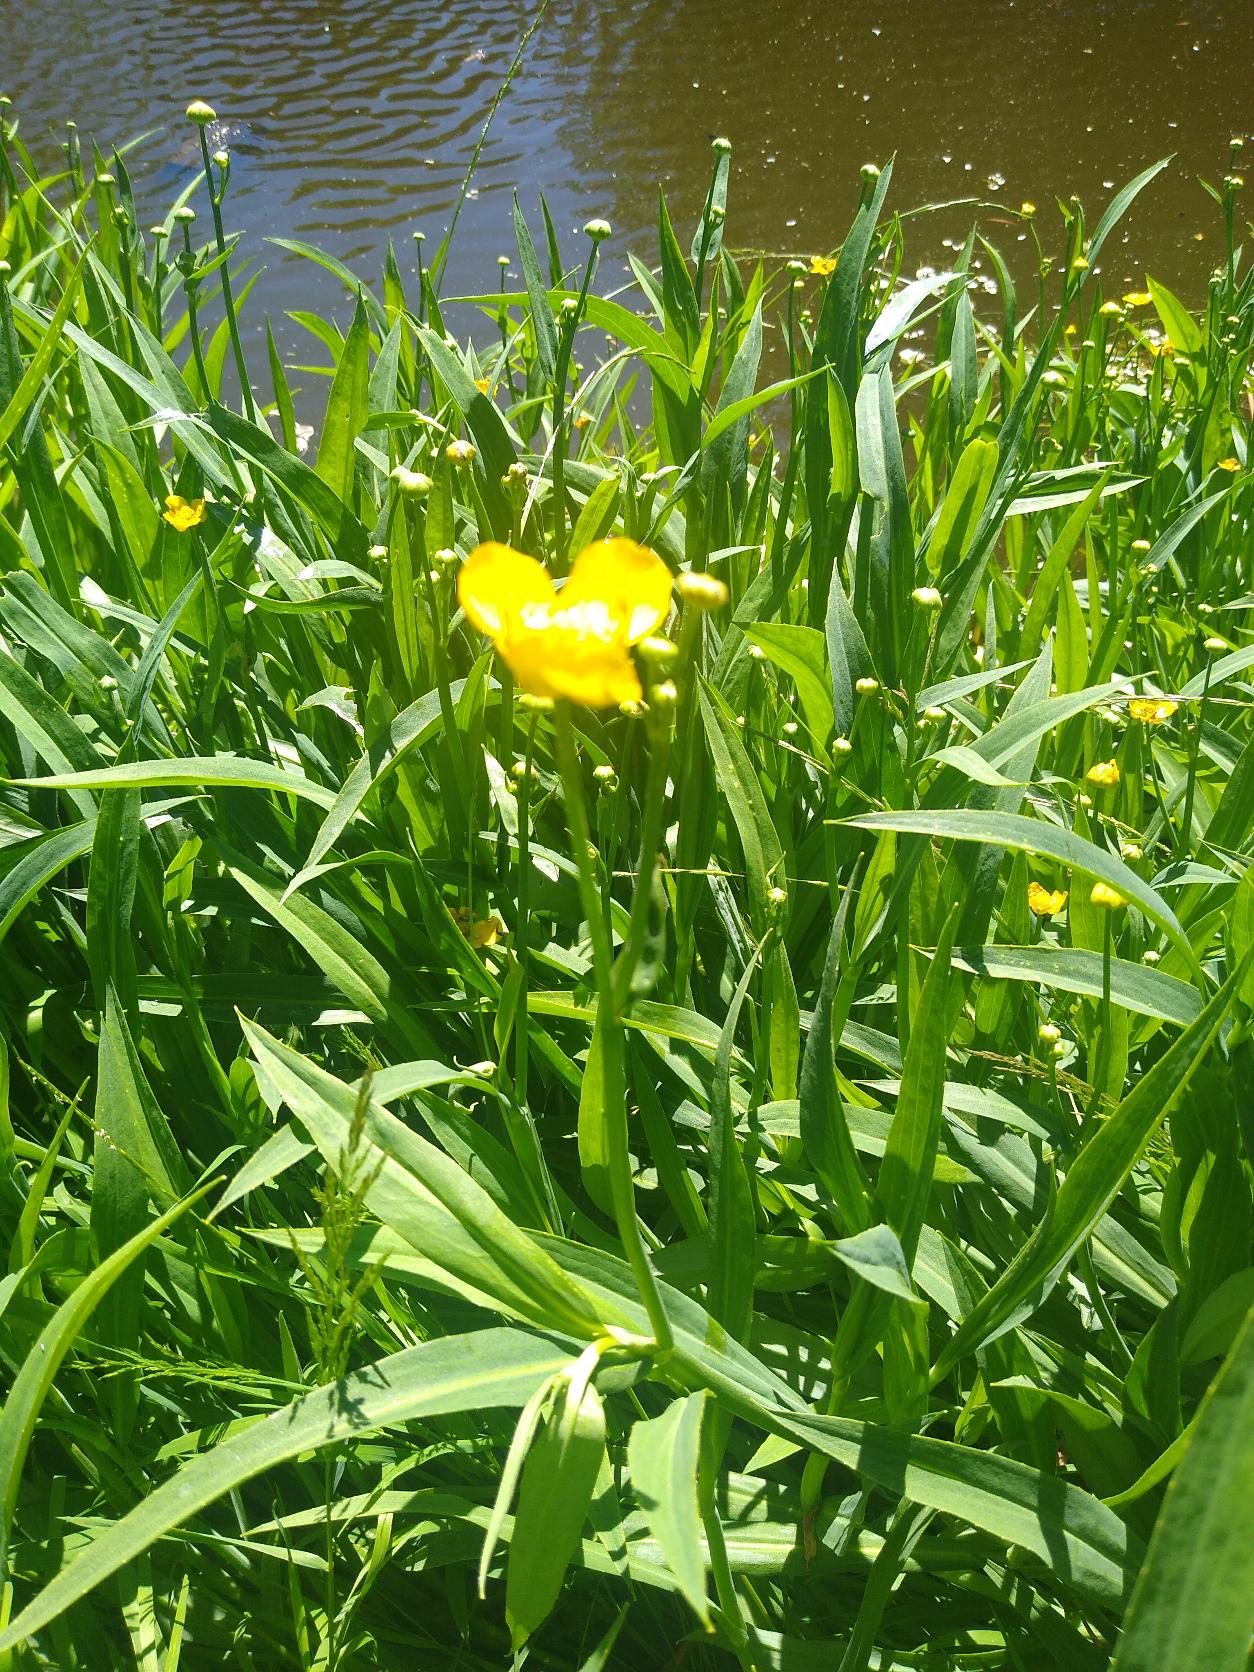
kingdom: Plantae
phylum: Tracheophyta
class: Magnoliopsida
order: Ranunculales
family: Ranunculaceae
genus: Ranunculus
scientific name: Ranunculus lingua
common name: Langbladet ranunkel
